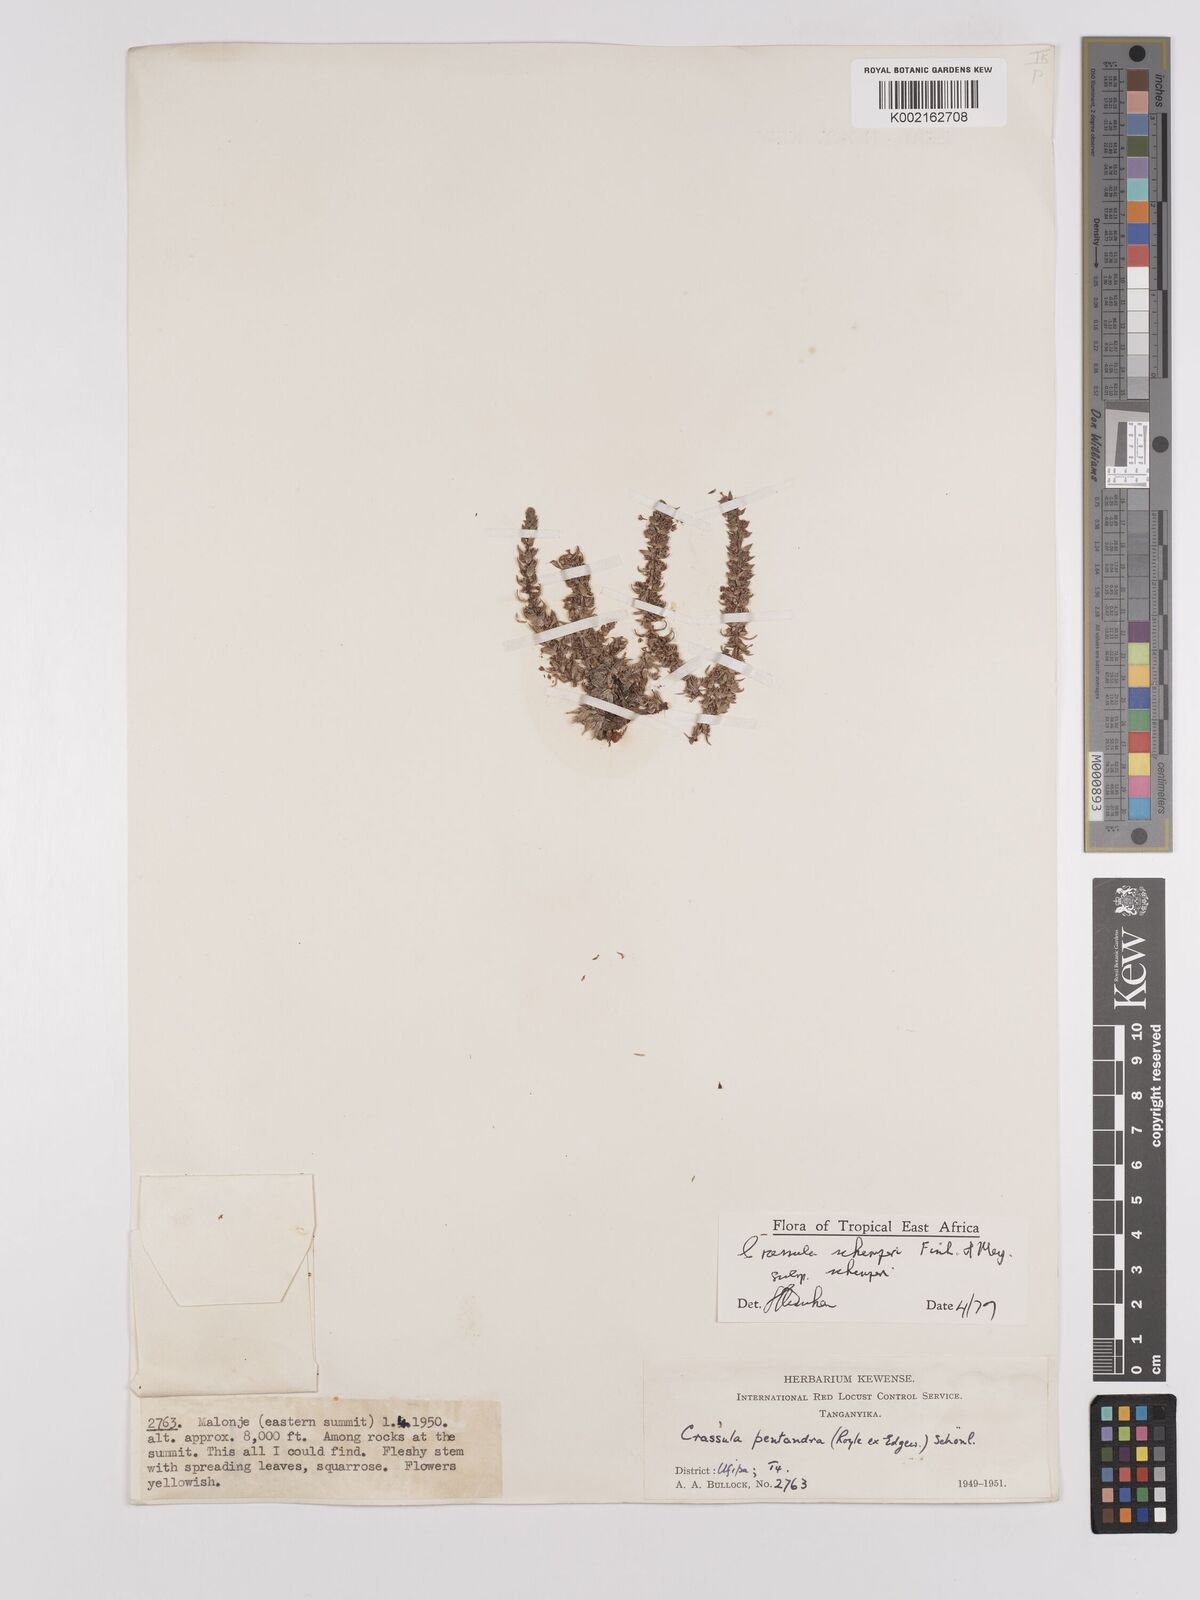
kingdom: Plantae
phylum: Tracheophyta
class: Magnoliopsida
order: Saxifragales
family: Crassulaceae
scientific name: Crassulaceae
